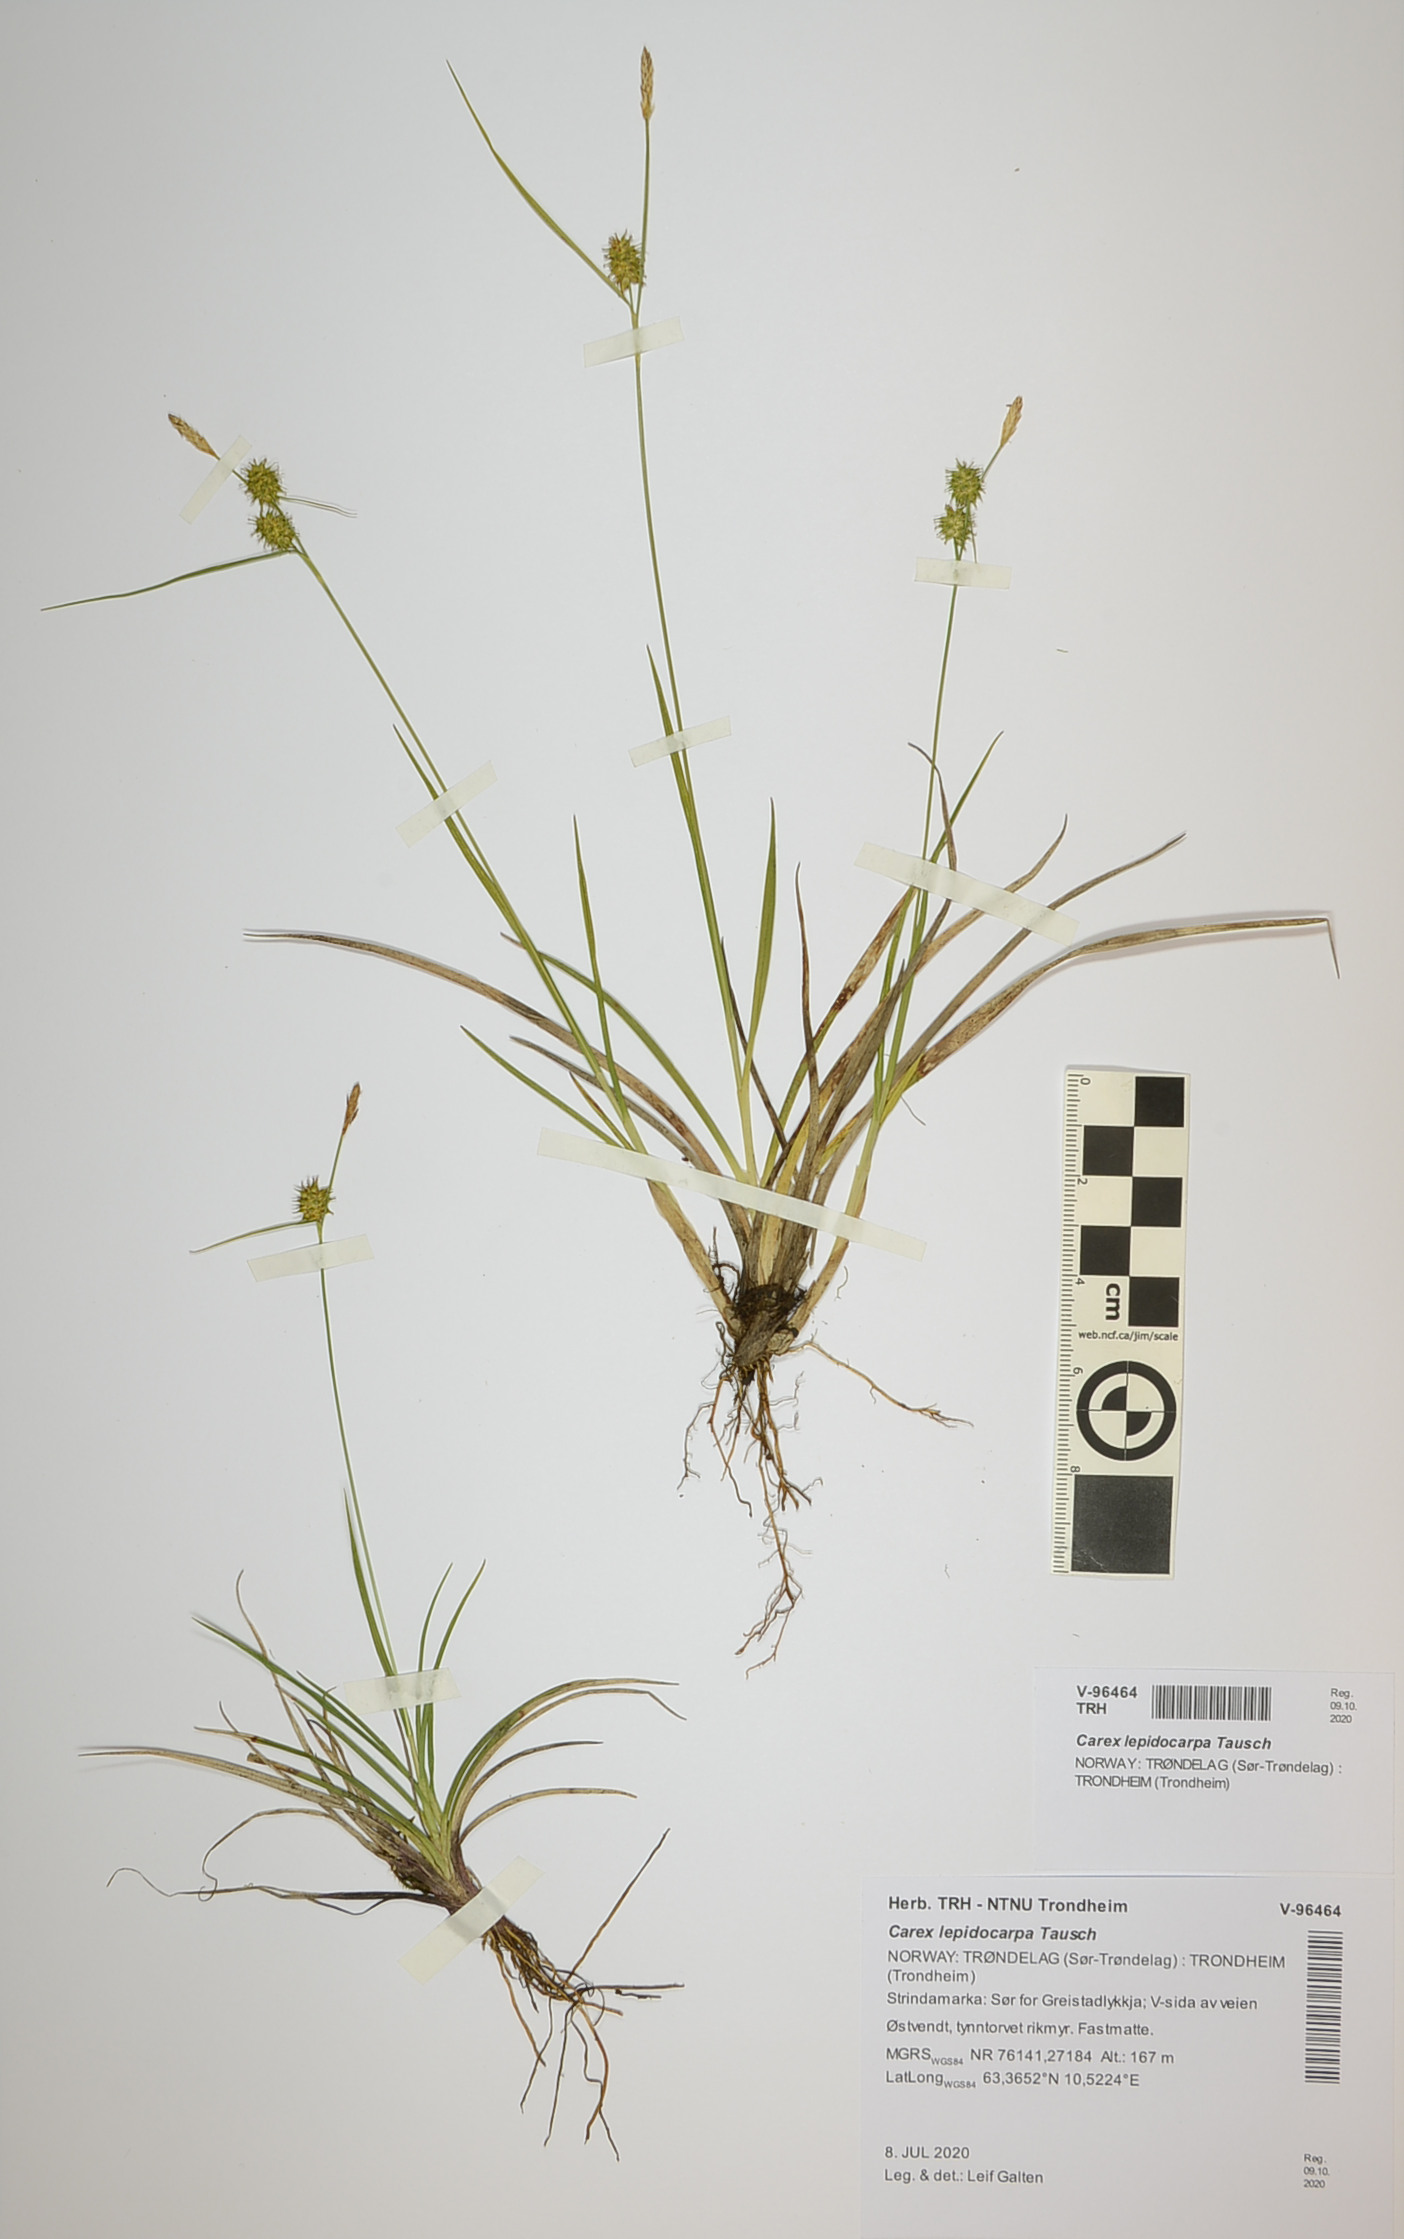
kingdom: Plantae
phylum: Tracheophyta
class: Liliopsida
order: Poales
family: Cyperaceae
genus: Carex
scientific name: Carex lepidocarpa
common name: Long-stalked yellow-sedge
